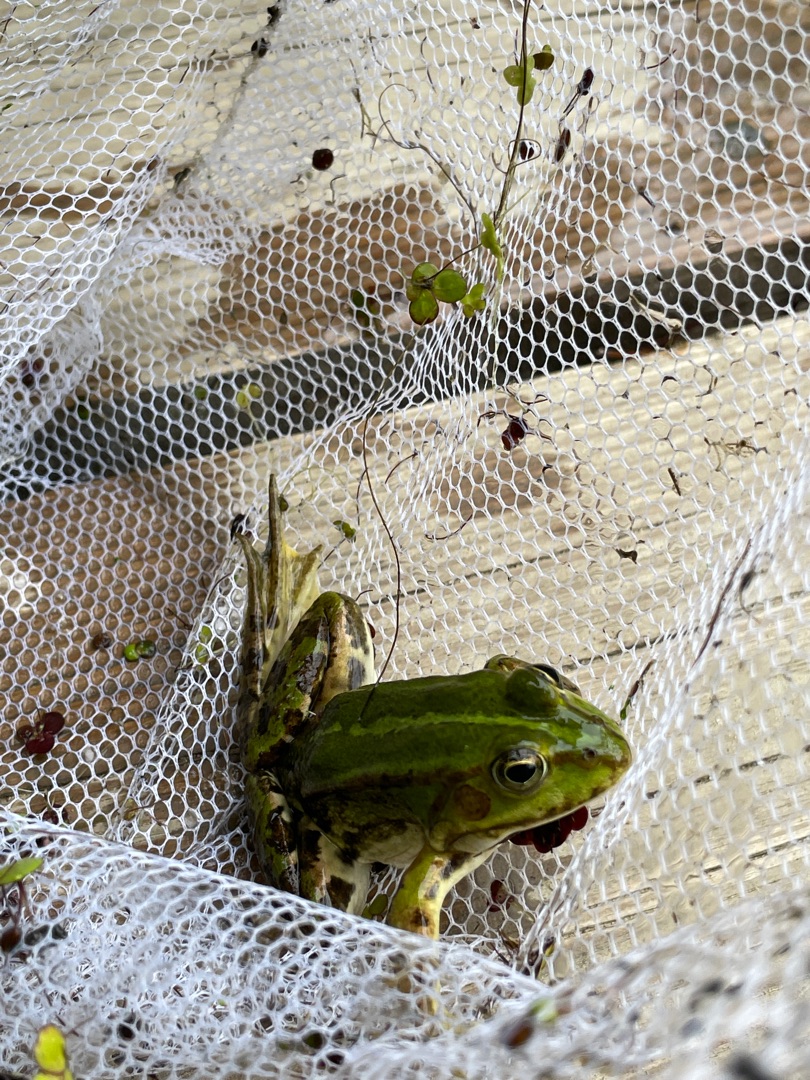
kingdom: Animalia
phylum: Chordata
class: Amphibia
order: Anura
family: Ranidae
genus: Pelophylax
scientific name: Pelophylax lessonae
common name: Grøn frø
